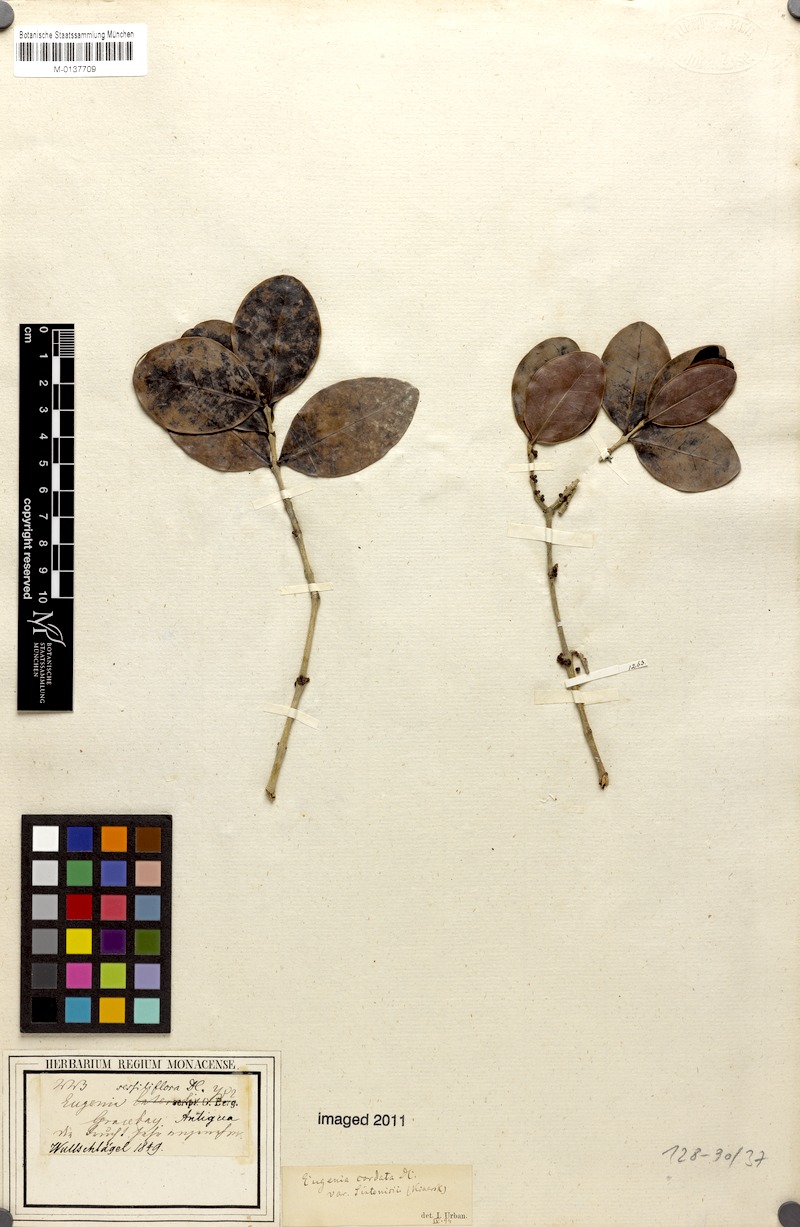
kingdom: Plantae
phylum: Tracheophyta
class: Magnoliopsida
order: Myrtales
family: Myrtaceae
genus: Eugenia
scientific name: Eugenia cordata
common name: Lathberry
